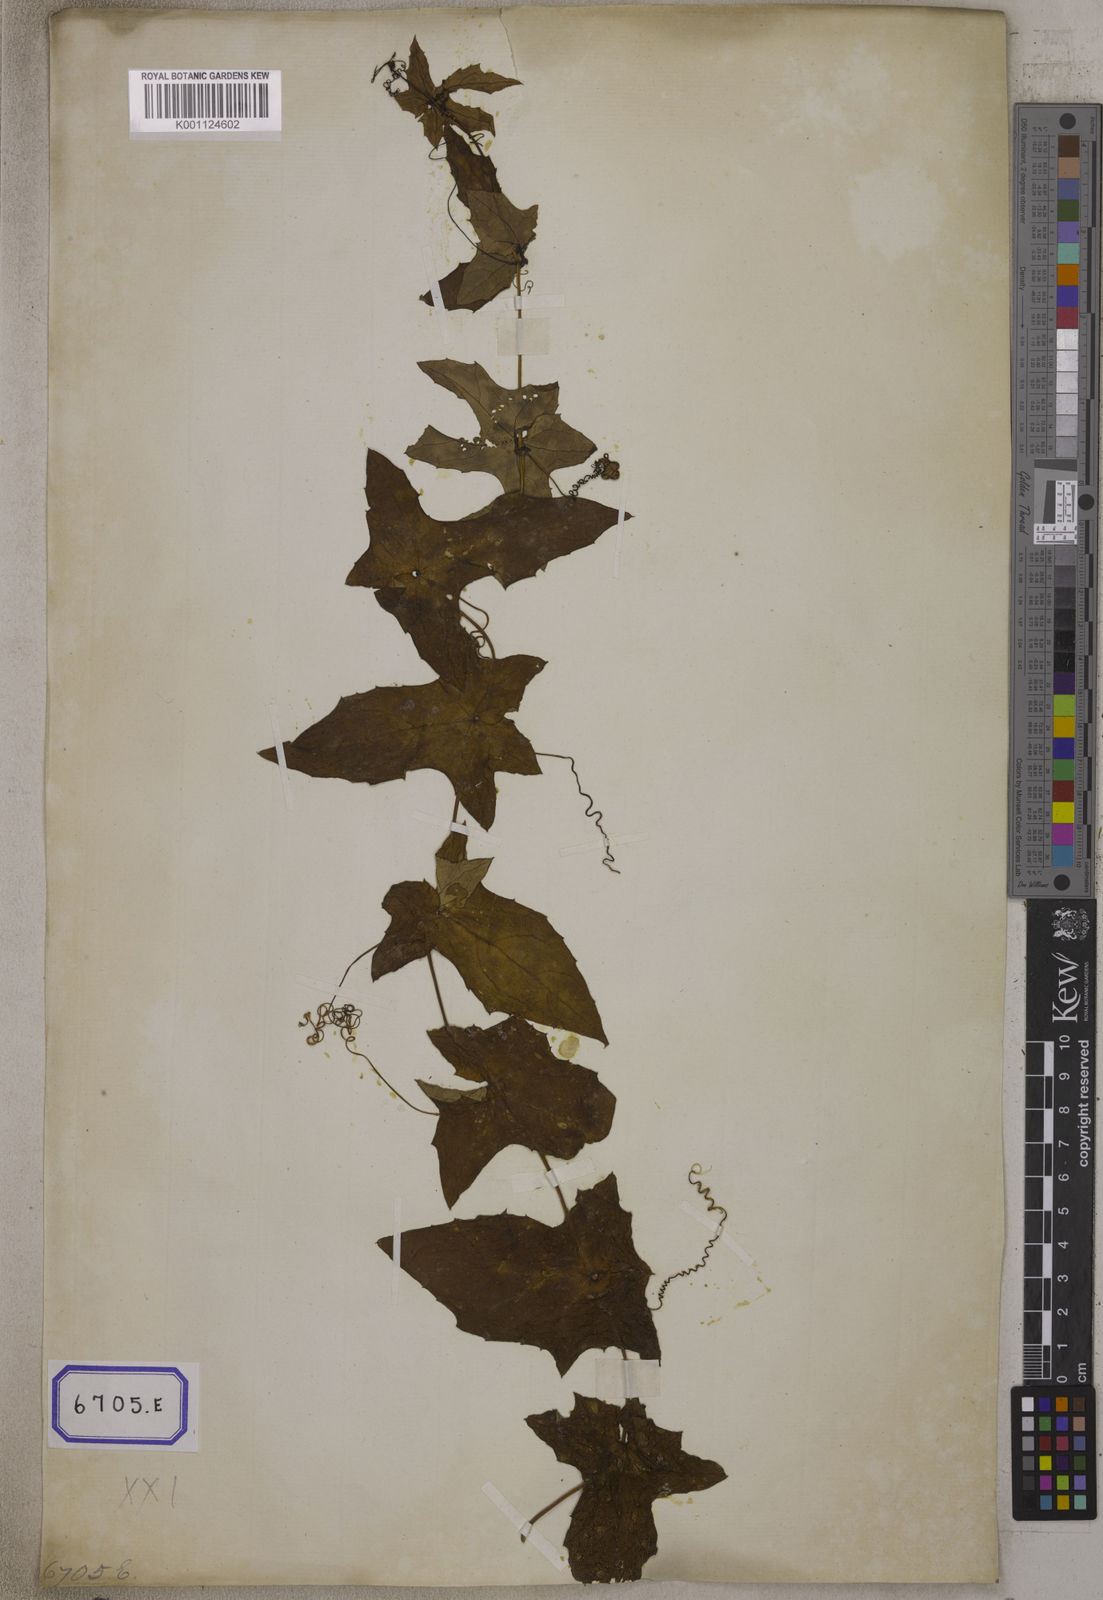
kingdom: Plantae
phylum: Tracheophyta
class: Magnoliopsida
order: Cucurbitales
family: Cucurbitaceae
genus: Bryonia
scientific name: Bryonia
